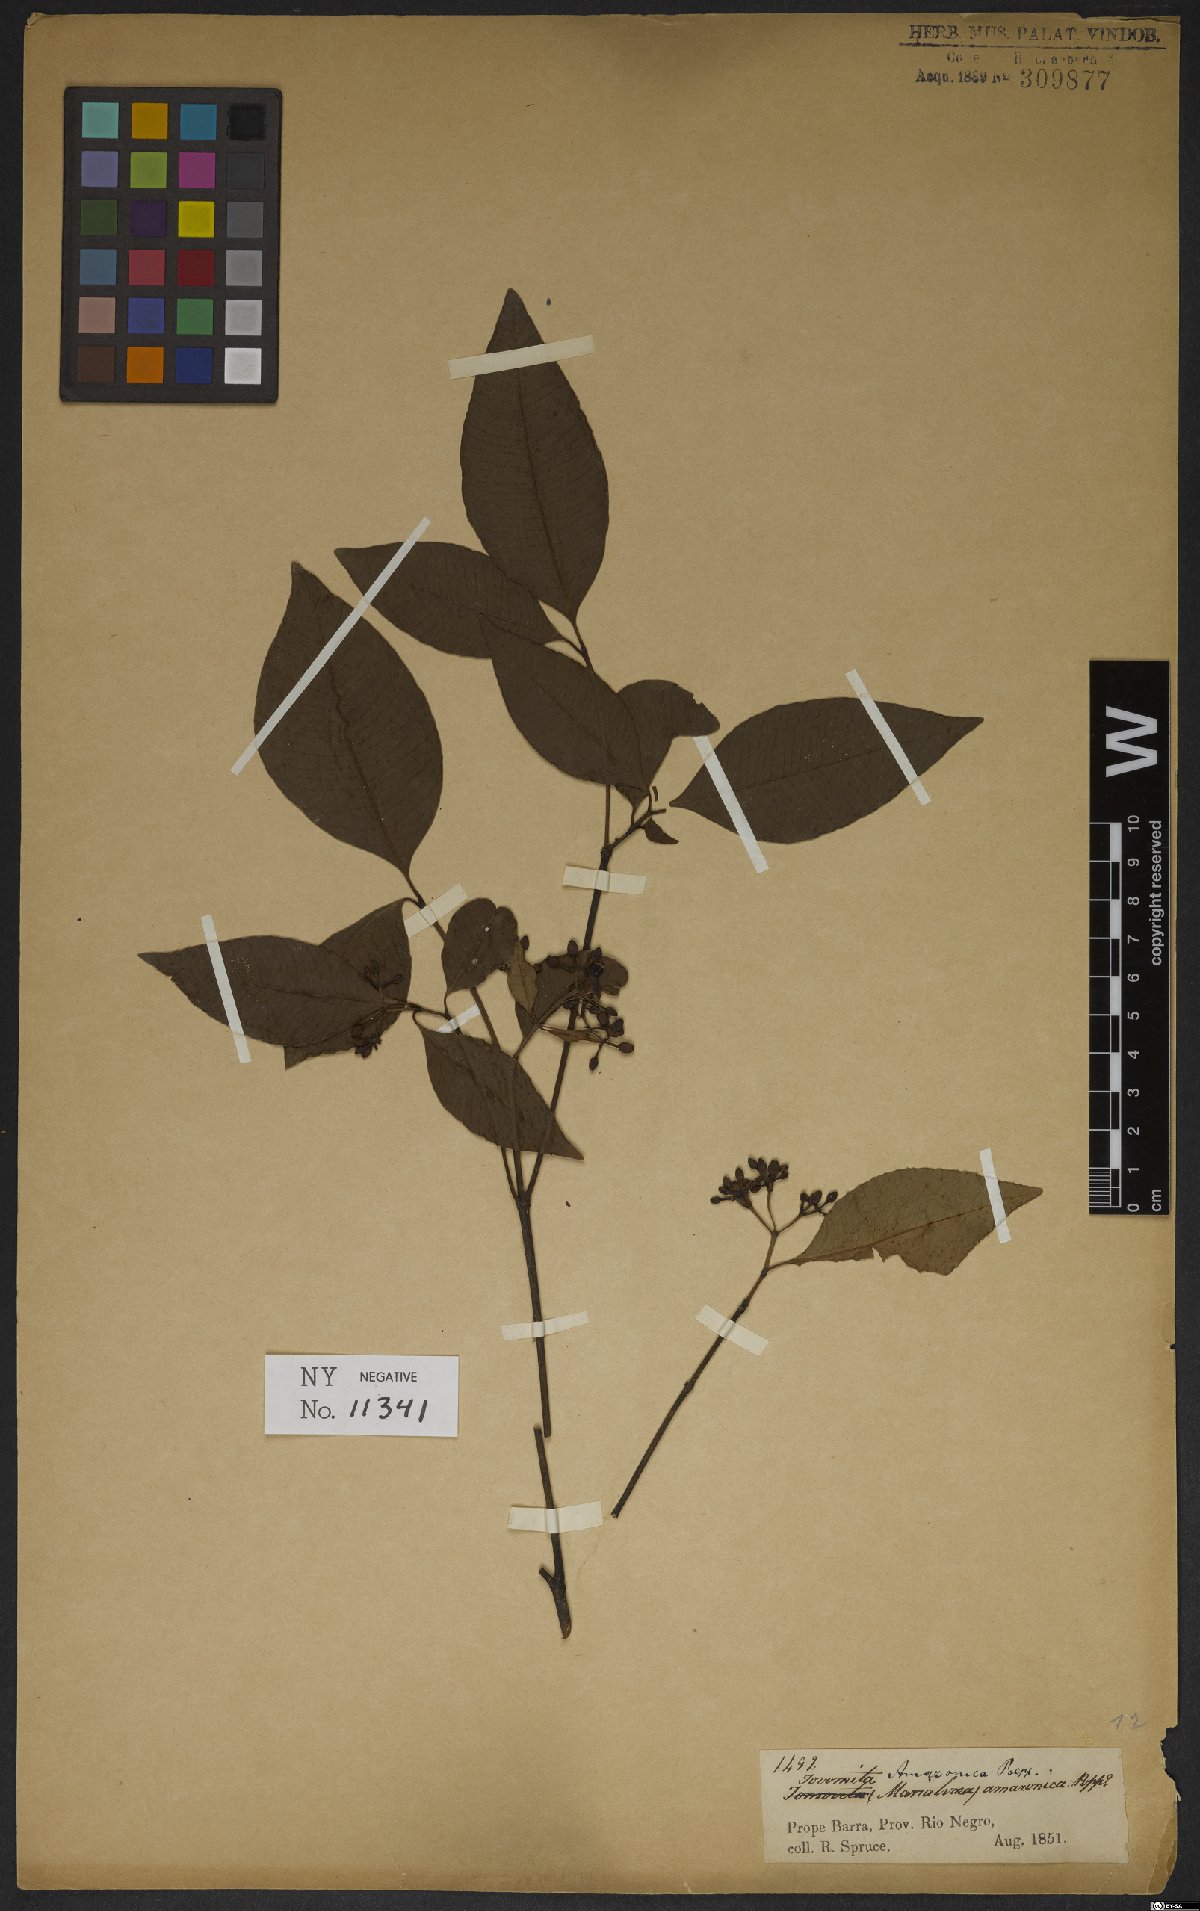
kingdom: Plantae
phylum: Tracheophyta
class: Magnoliopsida
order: Malpighiales
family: Clusiaceae
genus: Tovomita
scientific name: Tovomita amazonica
